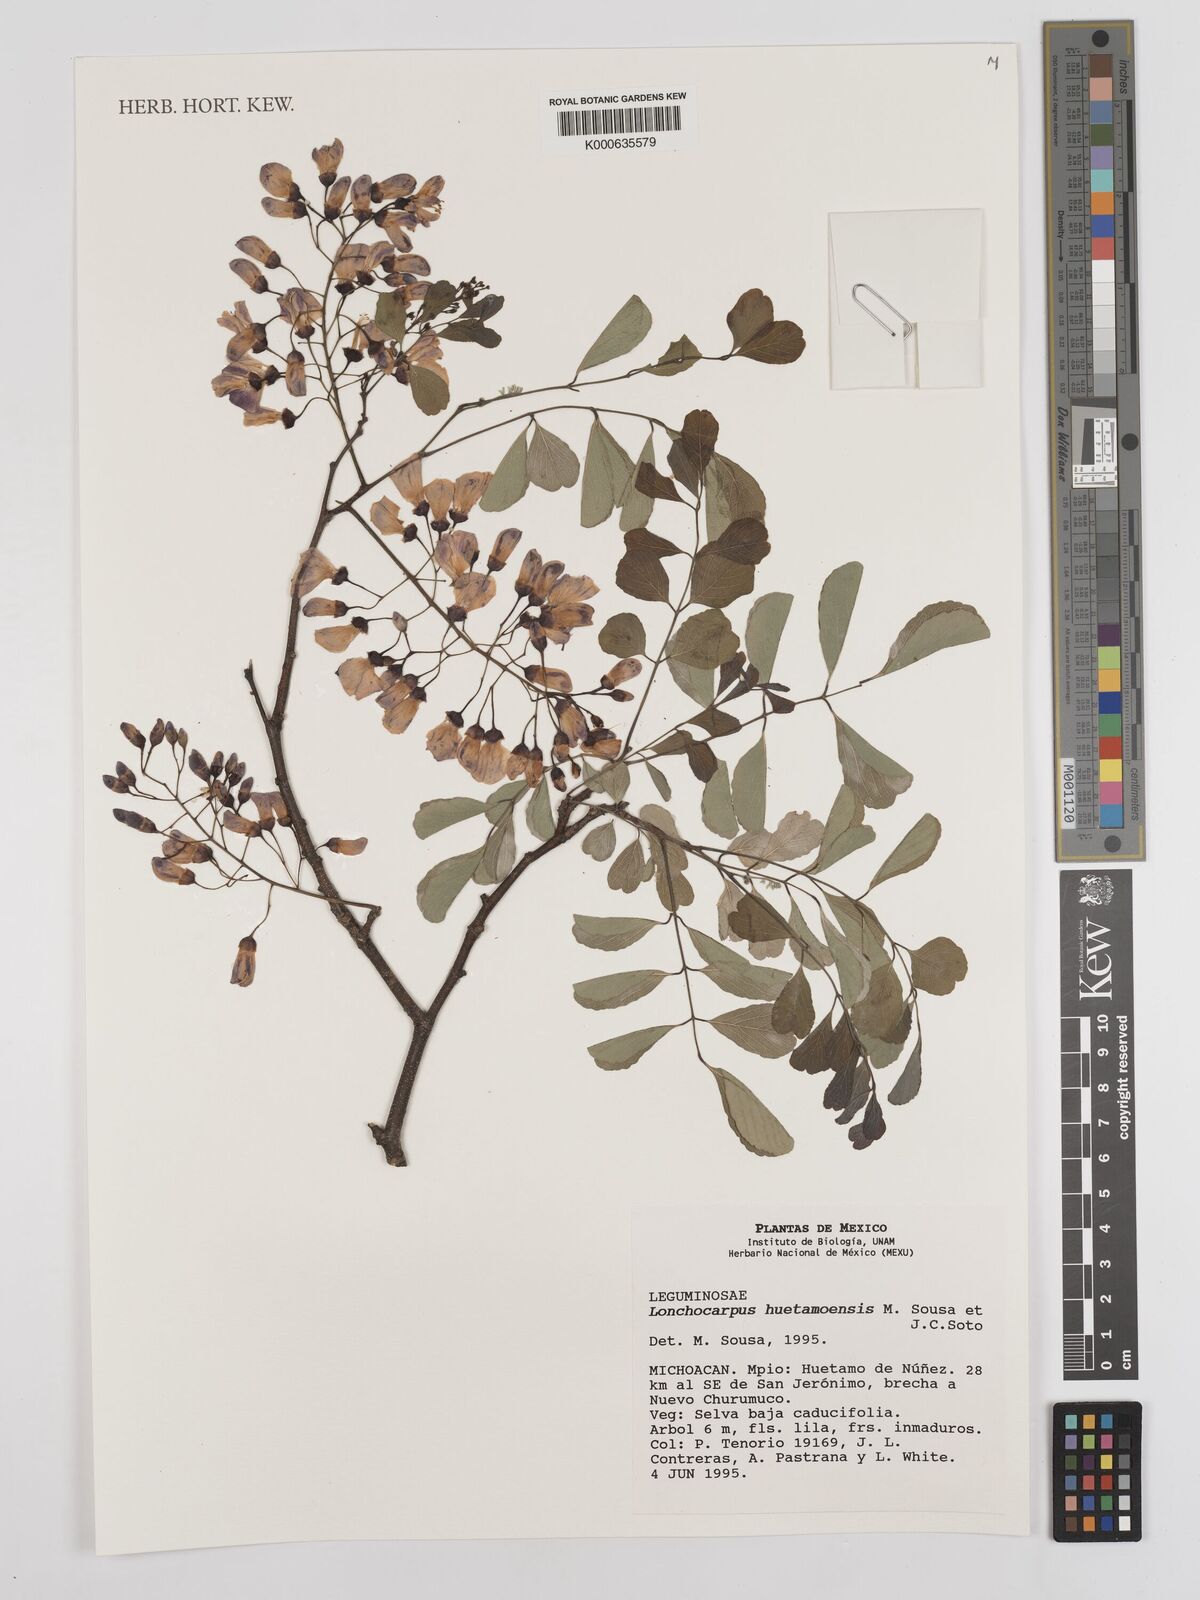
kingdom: Plantae
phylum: Tracheophyta
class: Magnoliopsida
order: Fabales
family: Fabaceae
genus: Lonchocarpus
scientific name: Lonchocarpus huetamoensis
